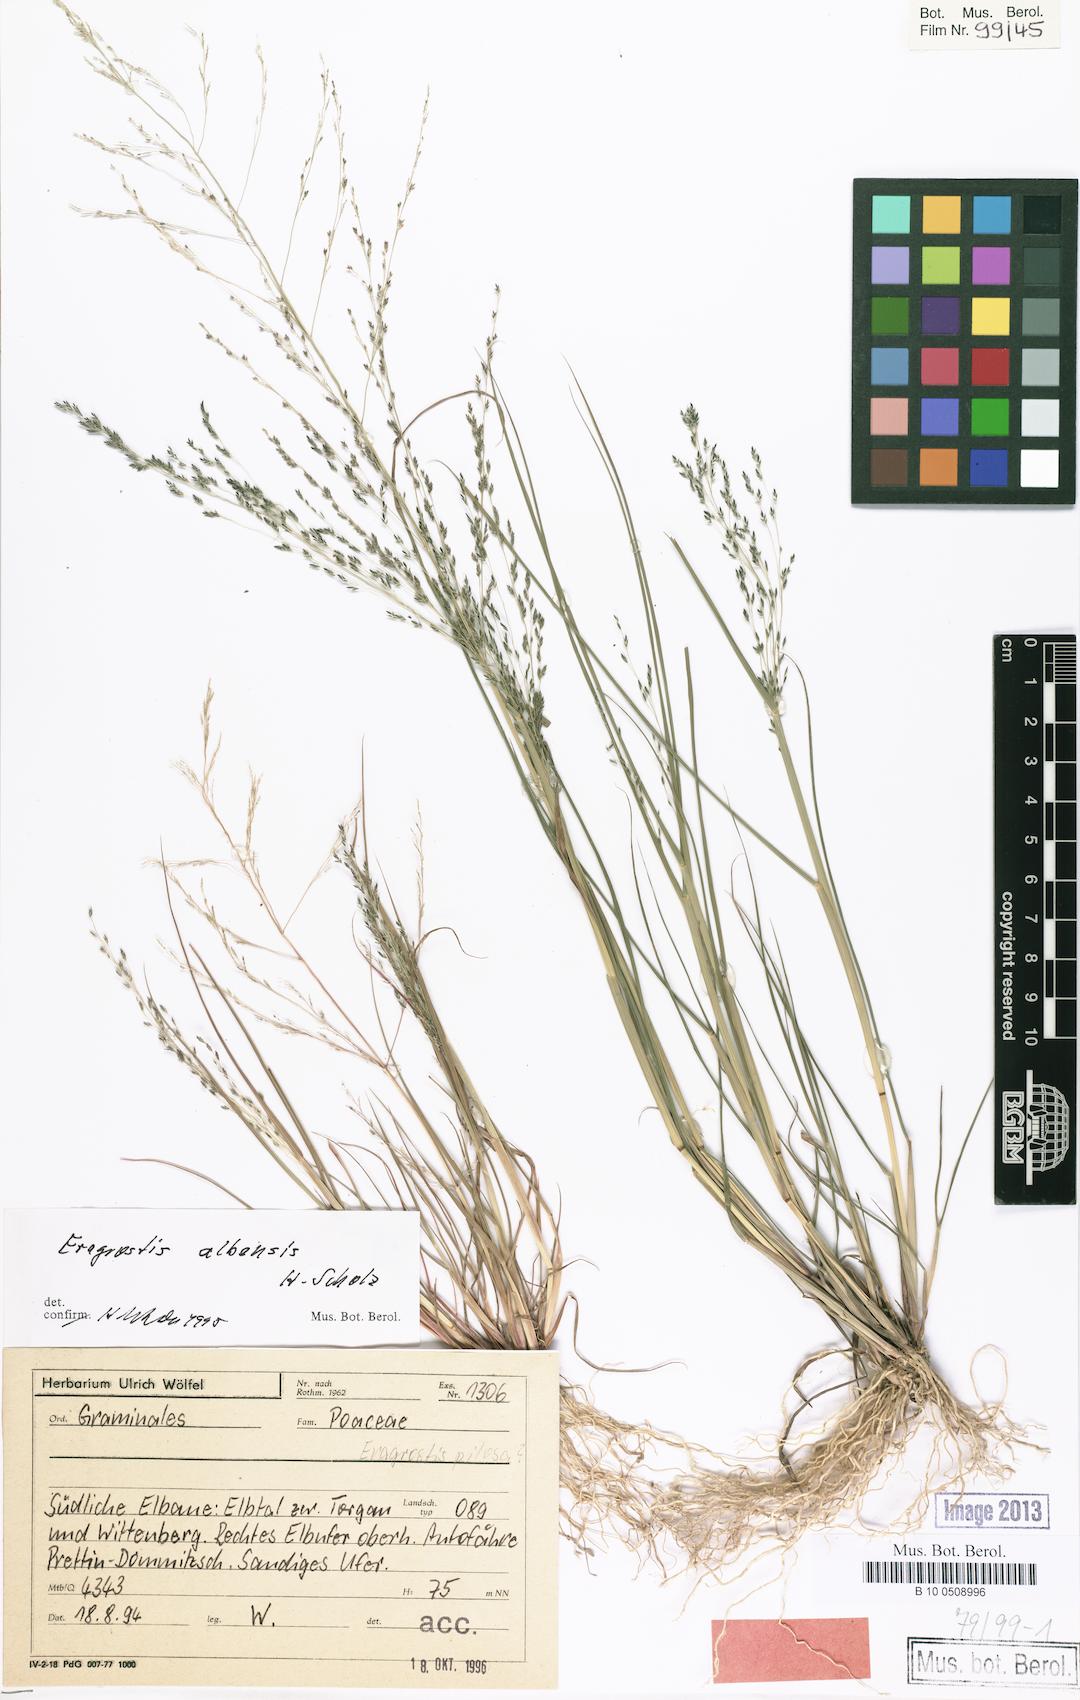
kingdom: Plantae
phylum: Tracheophyta
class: Liliopsida
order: Poales
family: Poaceae
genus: Eragrostis
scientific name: Eragrostis pilosa
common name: Indian lovegrass
